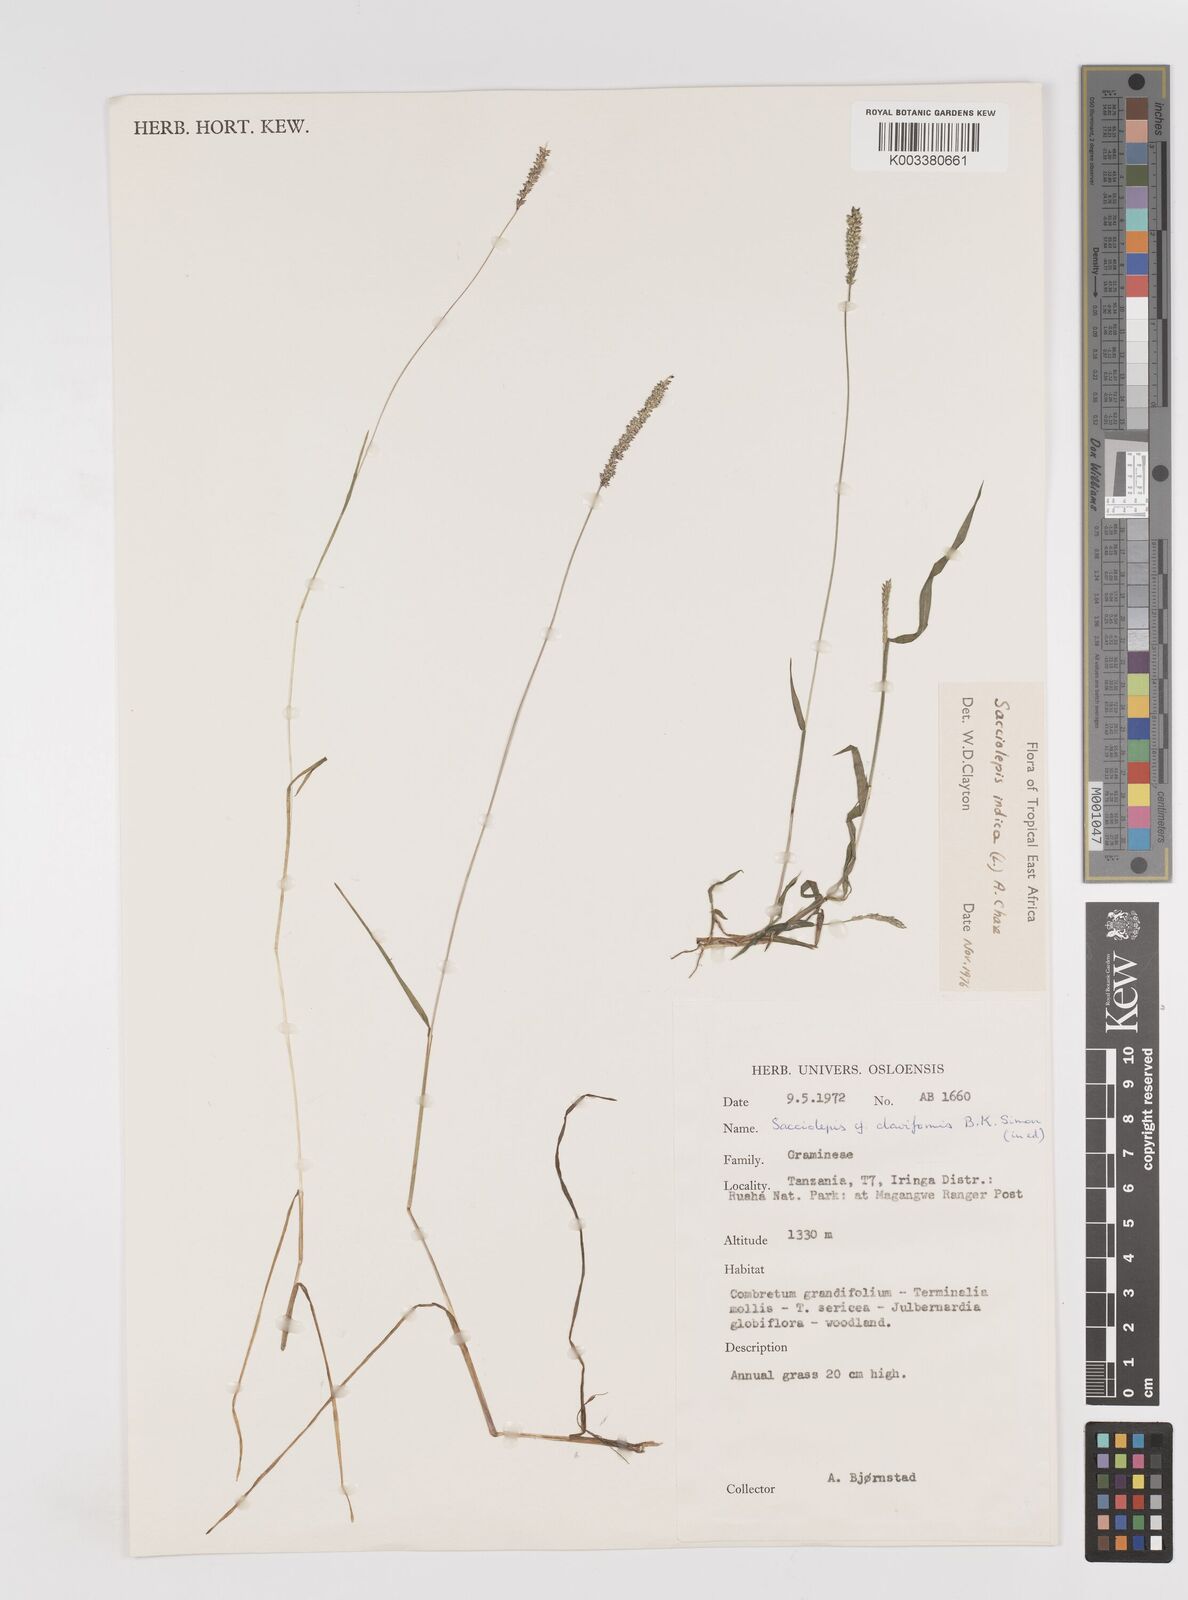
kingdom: Plantae
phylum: Tracheophyta
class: Liliopsida
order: Poales
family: Poaceae
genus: Sacciolepis
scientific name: Sacciolepis indica
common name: Glenwoodgrass
